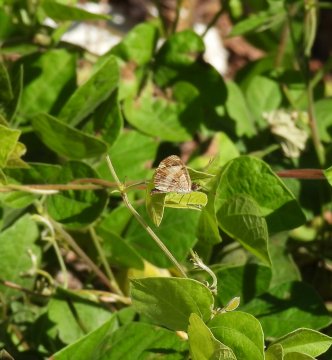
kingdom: Animalia
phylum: Arthropoda
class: Insecta
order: Lepidoptera
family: Nymphalidae
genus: Anthanassa
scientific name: Anthanassa tulcis
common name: Pale-banded Crescent
